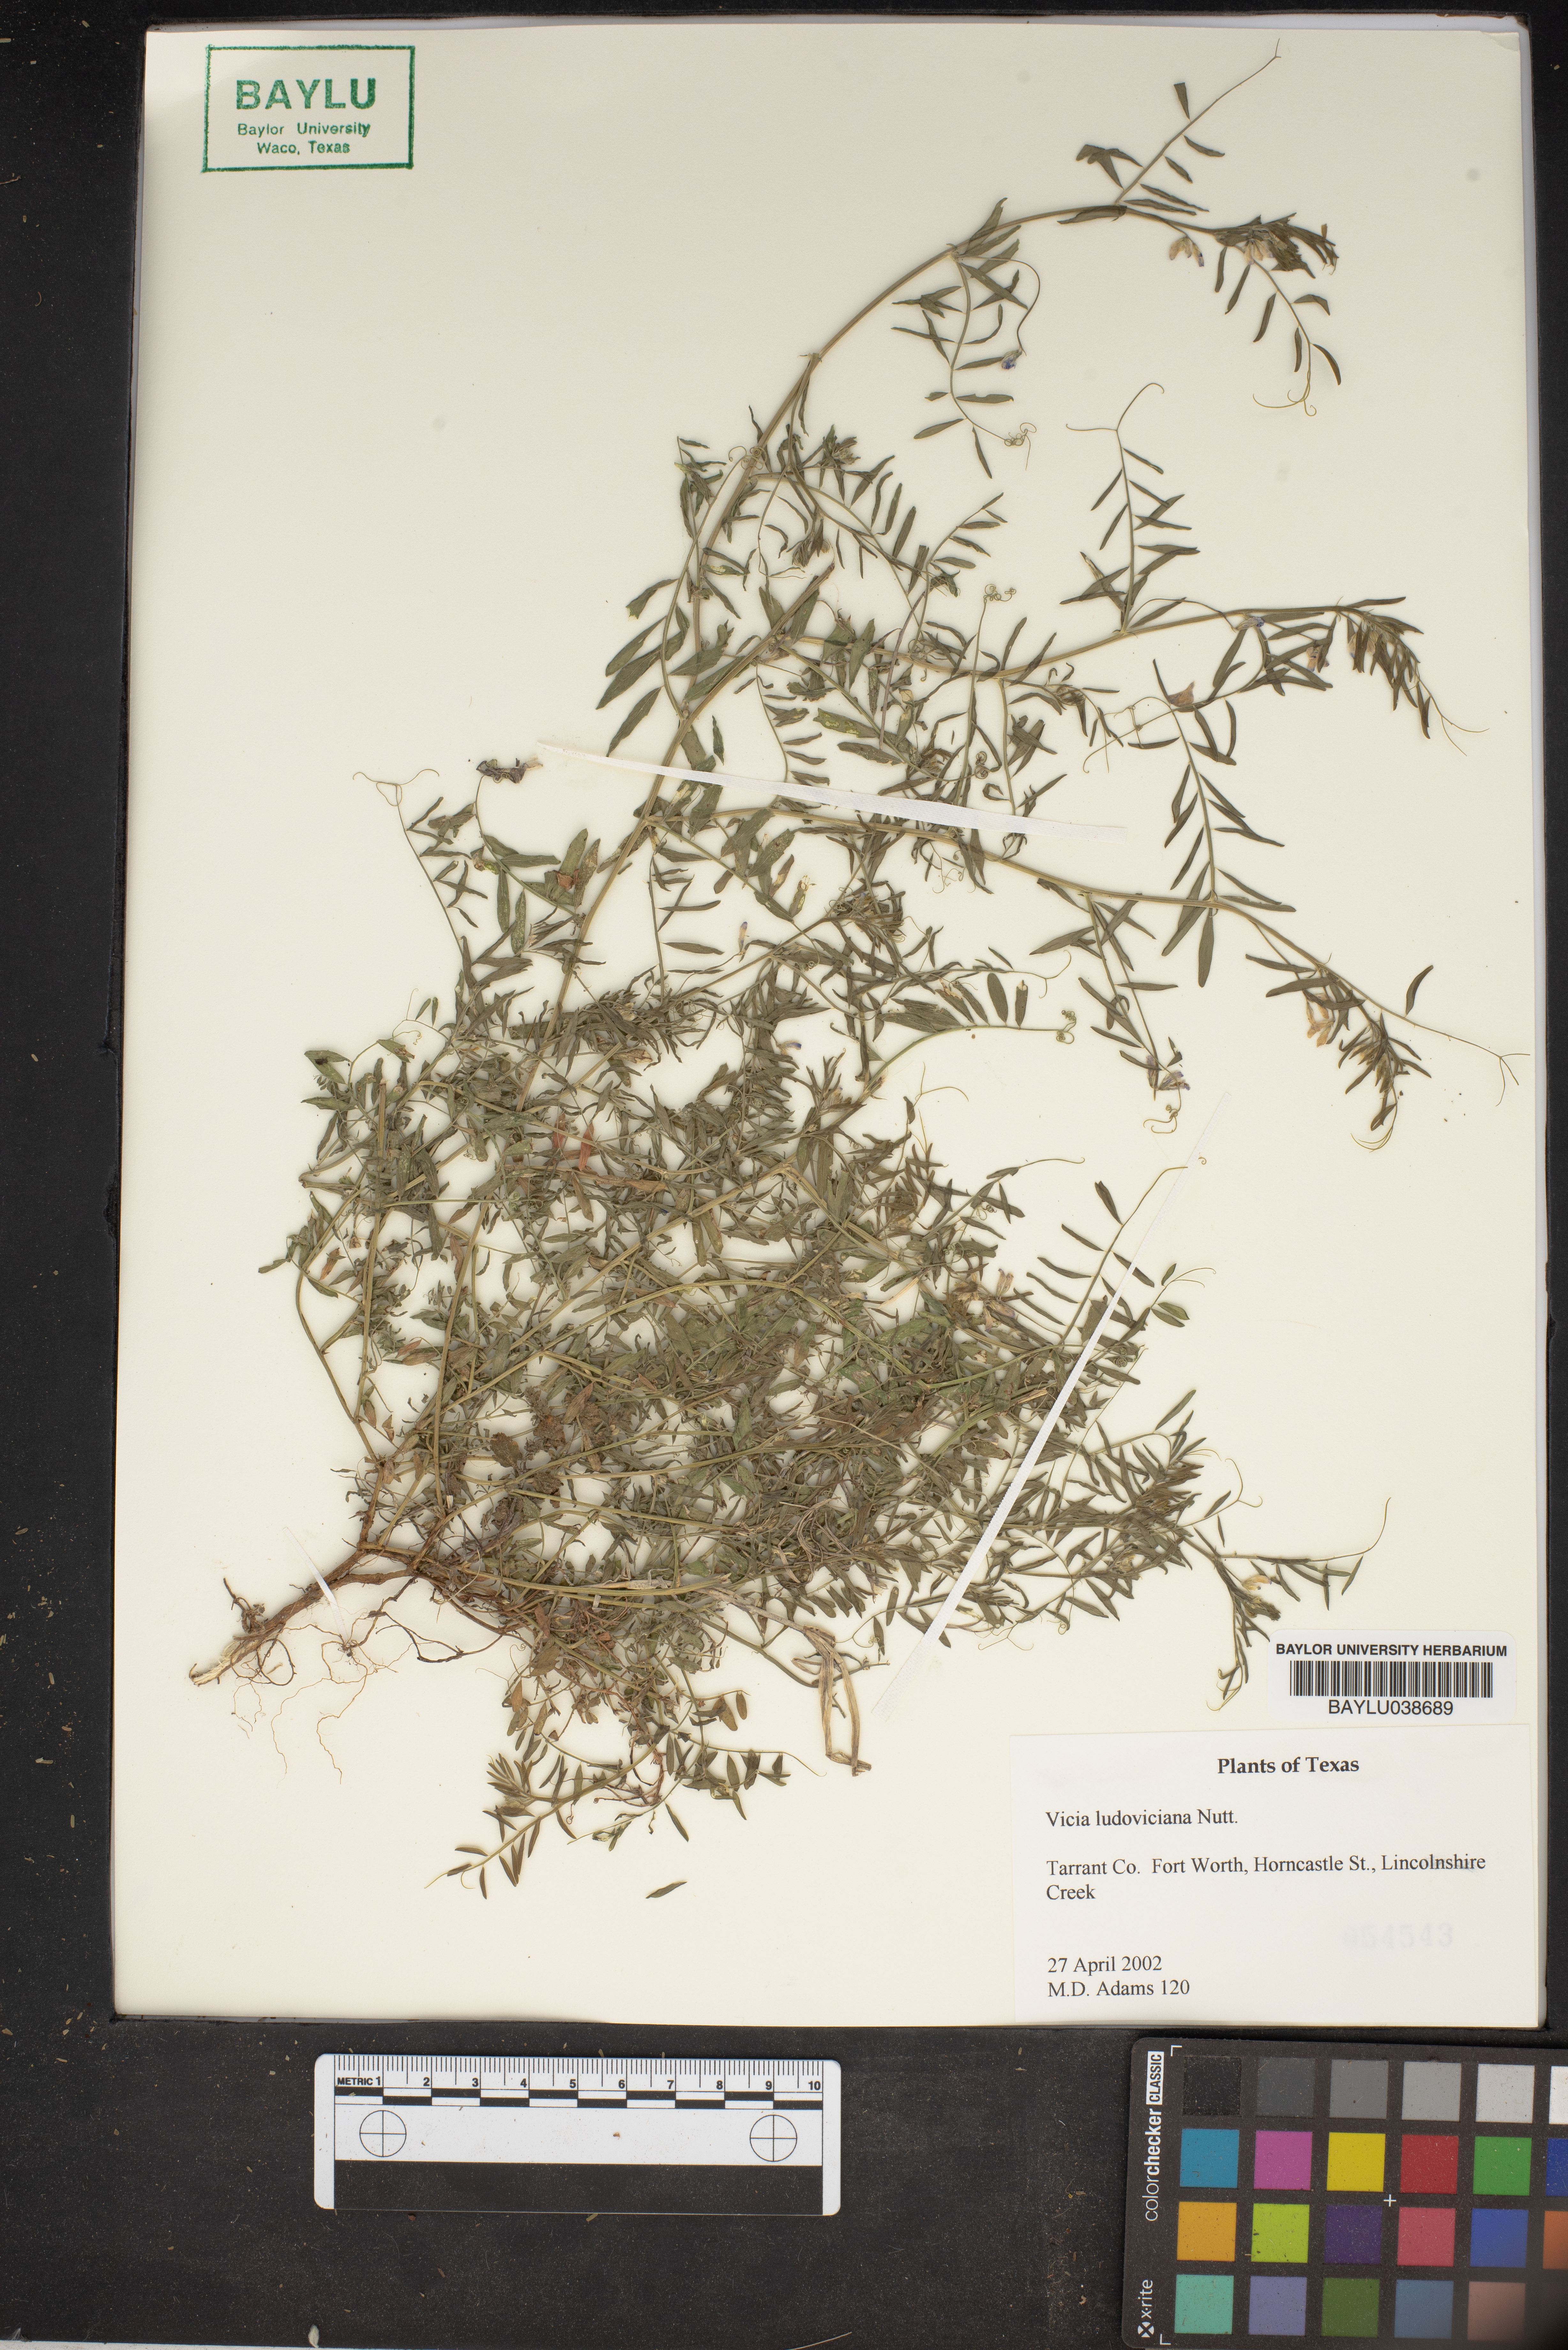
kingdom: Plantae
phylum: Tracheophyta
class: Magnoliopsida
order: Fabales
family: Fabaceae
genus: Vicia
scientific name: Vicia ludoviciana
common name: Louisiana vetch
